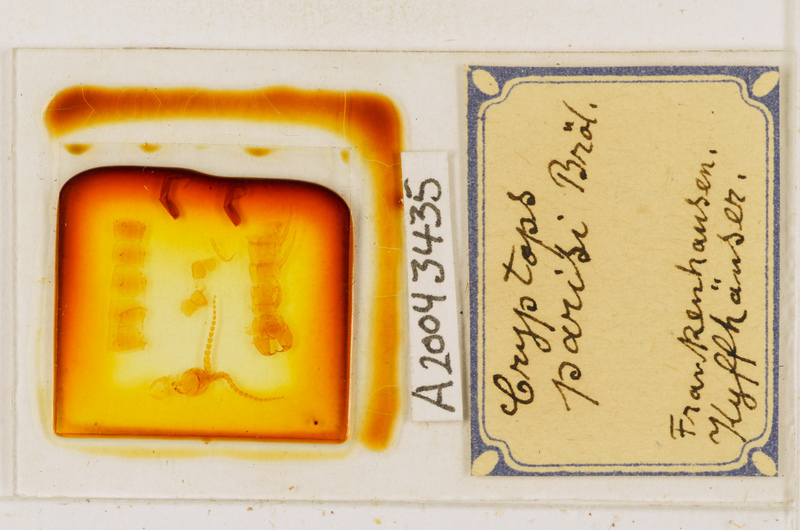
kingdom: Animalia
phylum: Arthropoda
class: Chilopoda
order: Scolopendromorpha
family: Cryptopidae
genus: Cryptops
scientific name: Cryptops parisi
